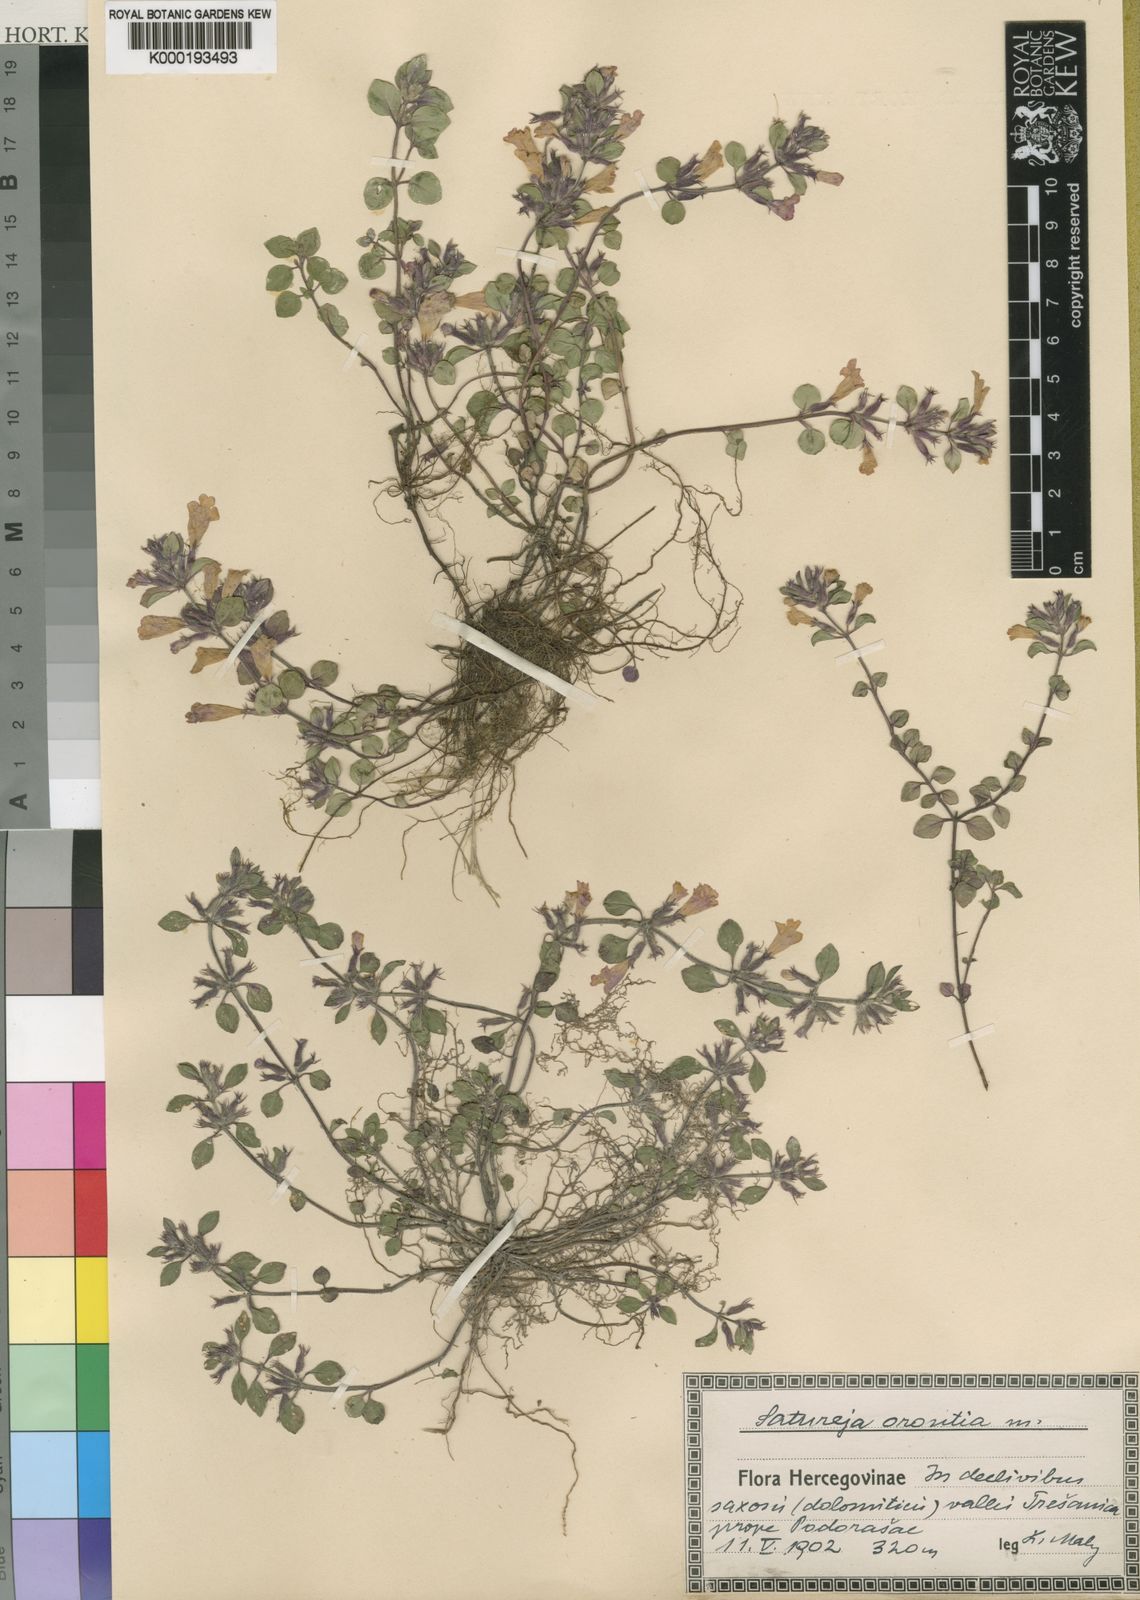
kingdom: Plantae
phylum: Tracheophyta
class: Magnoliopsida
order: Lamiales
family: Lamiaceae
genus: Clinopodium
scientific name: Clinopodium alpinum
